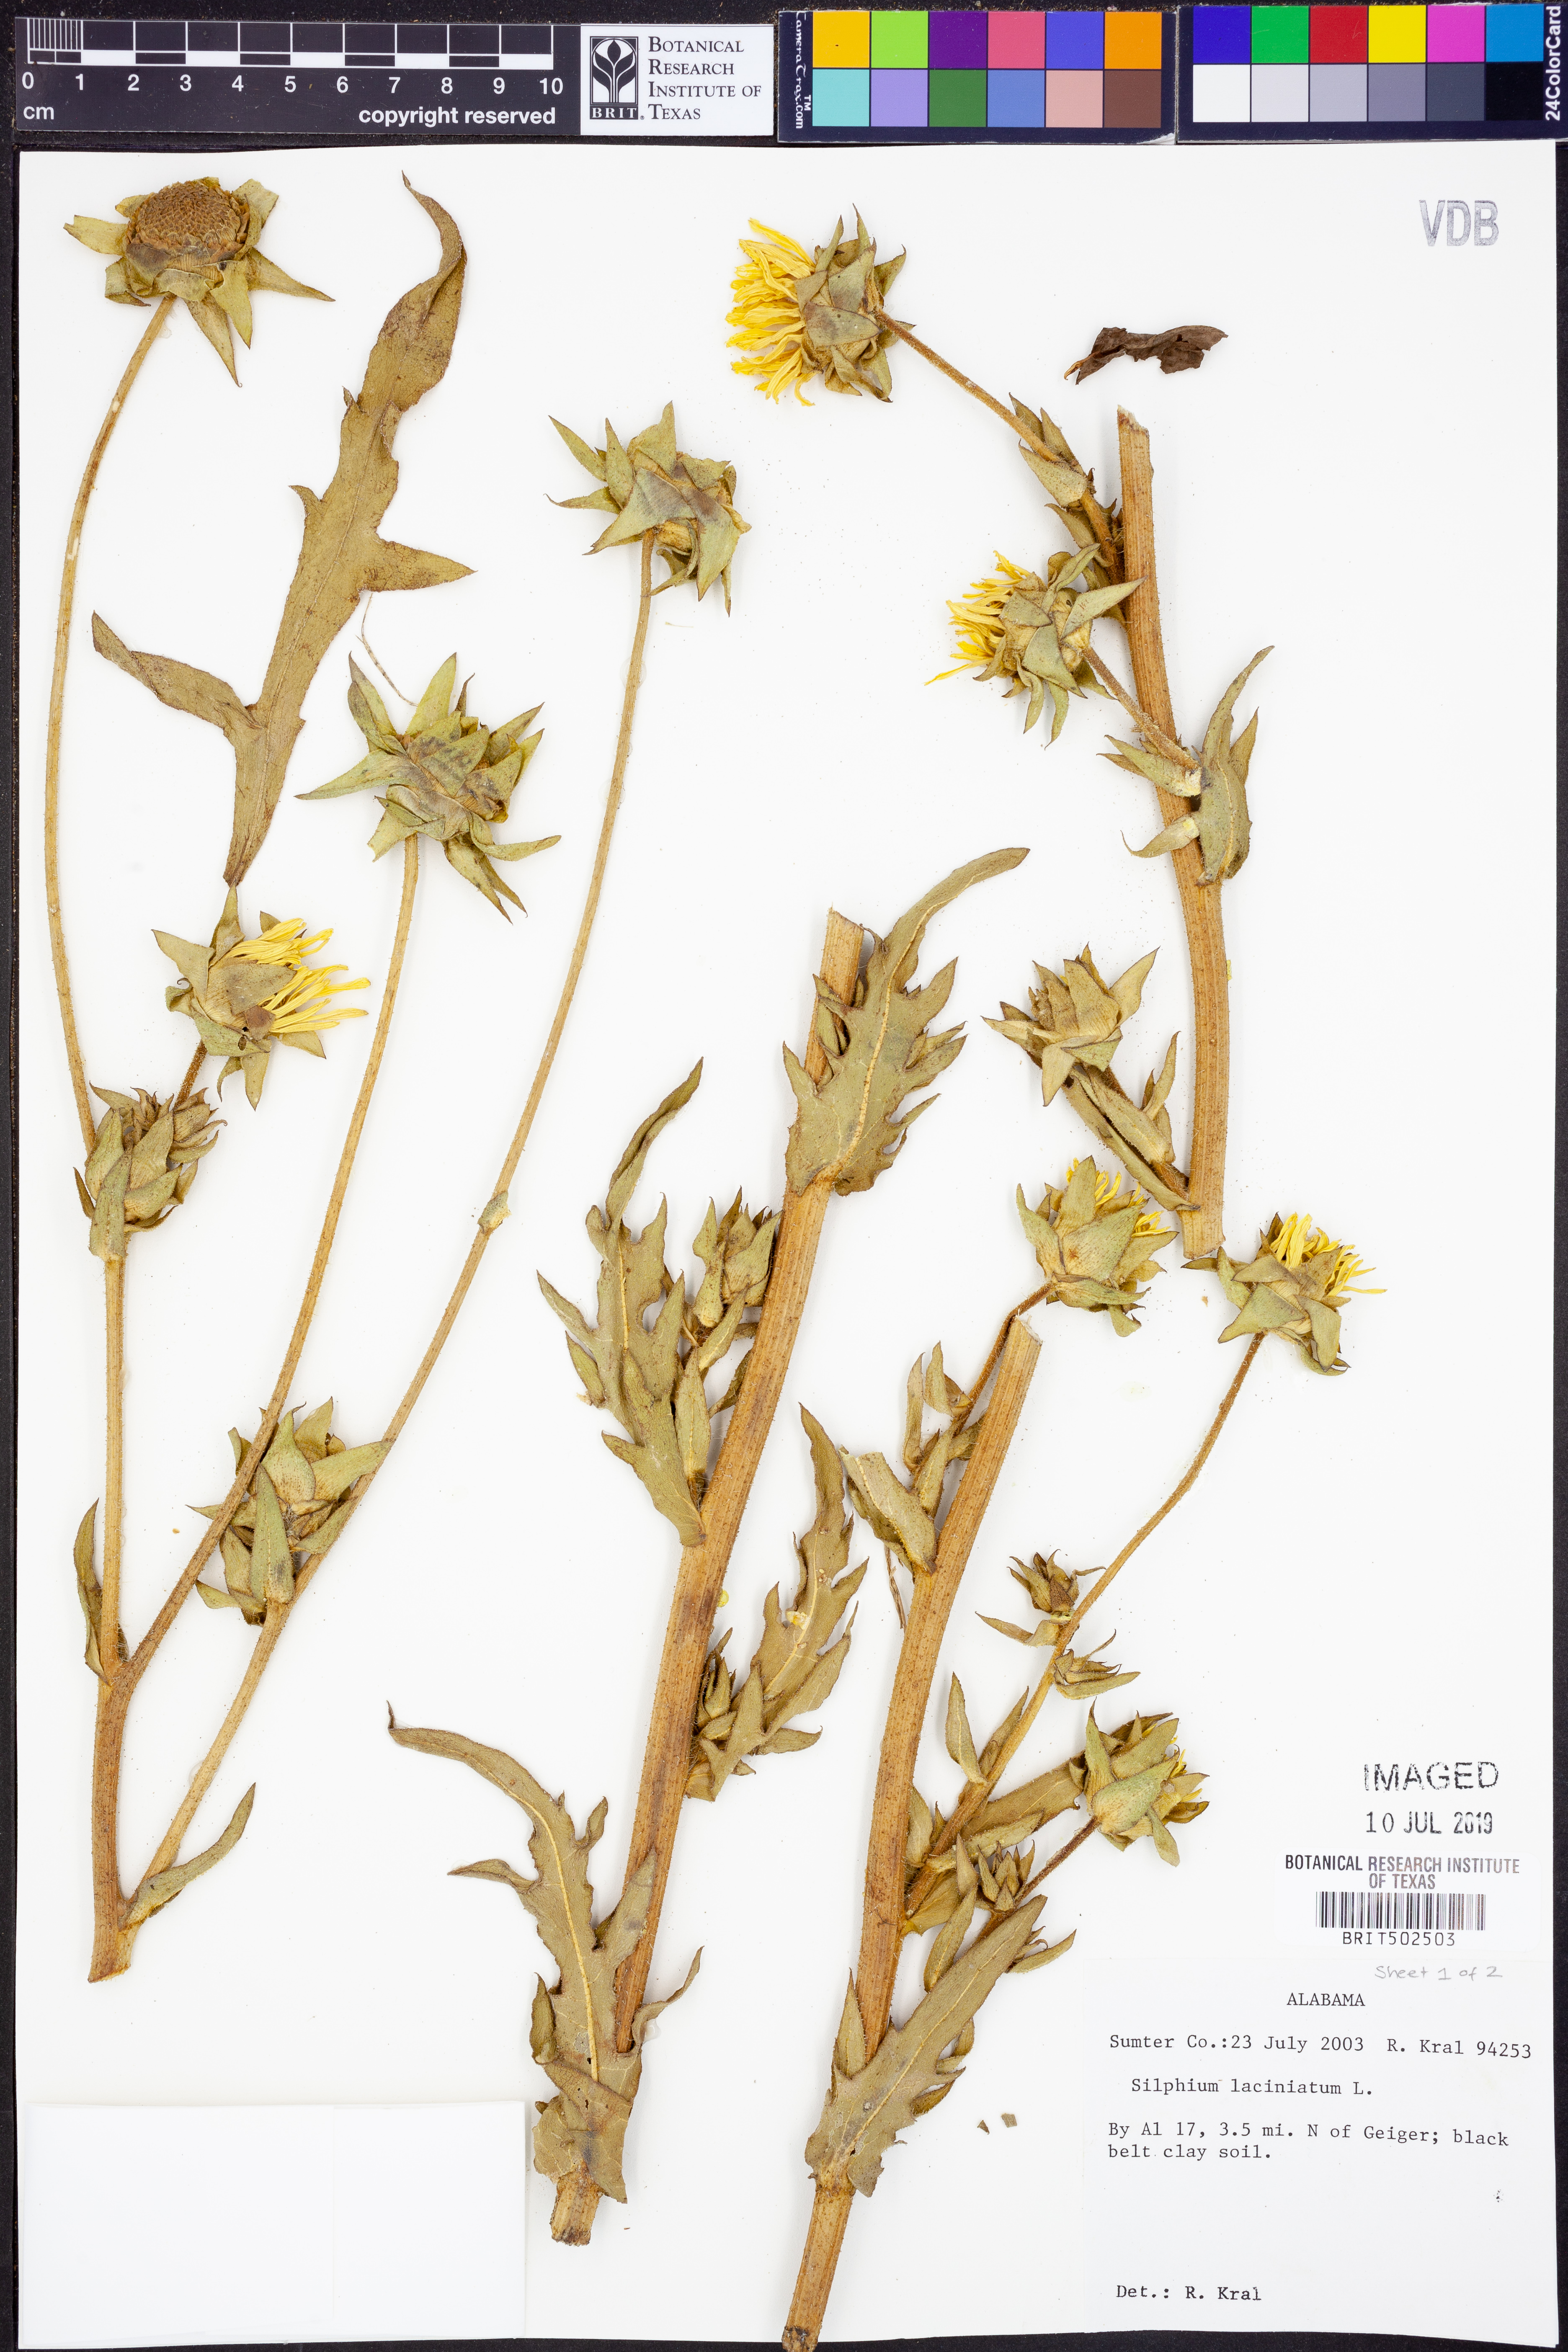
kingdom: Plantae
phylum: Tracheophyta
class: Magnoliopsida
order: Asterales
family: Asteraceae
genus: Silphium
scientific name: Silphium laciniatum
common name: Polarplant
